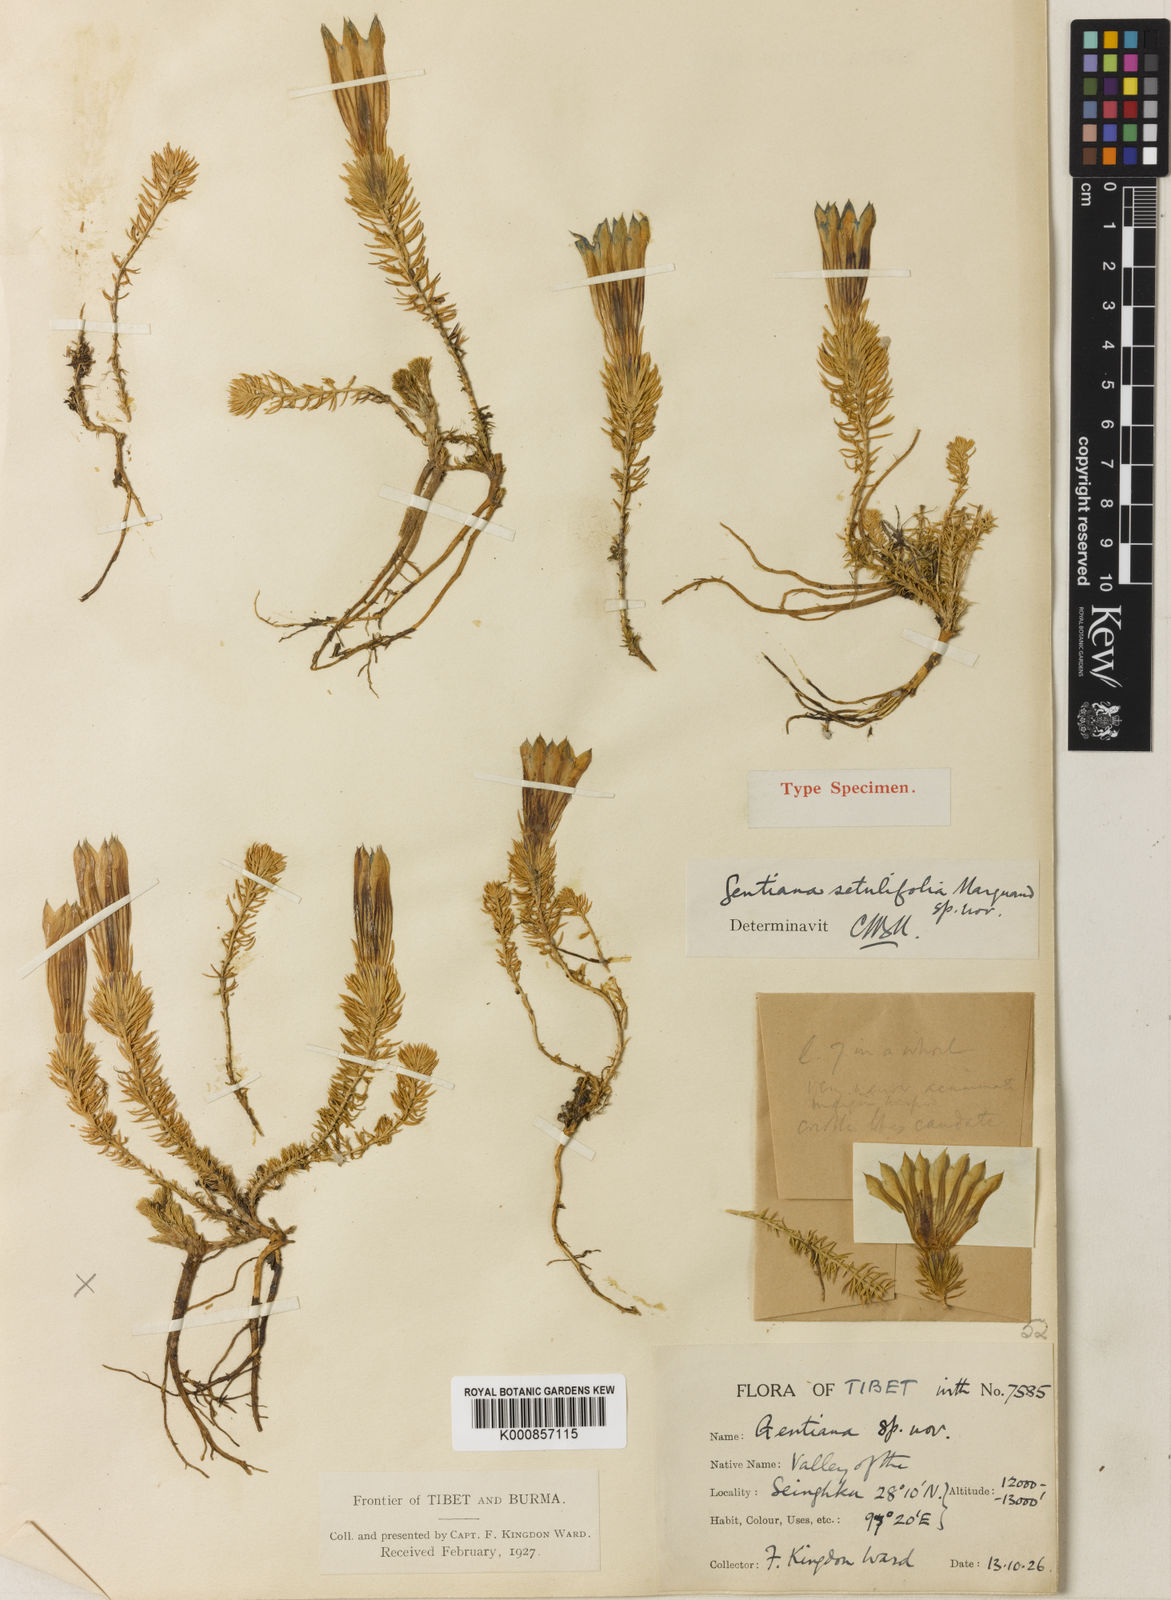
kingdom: Plantae
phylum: Tracheophyta
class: Magnoliopsida
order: Gentianales
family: Gentianaceae
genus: Gentiana
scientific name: Gentiana ecaudata
